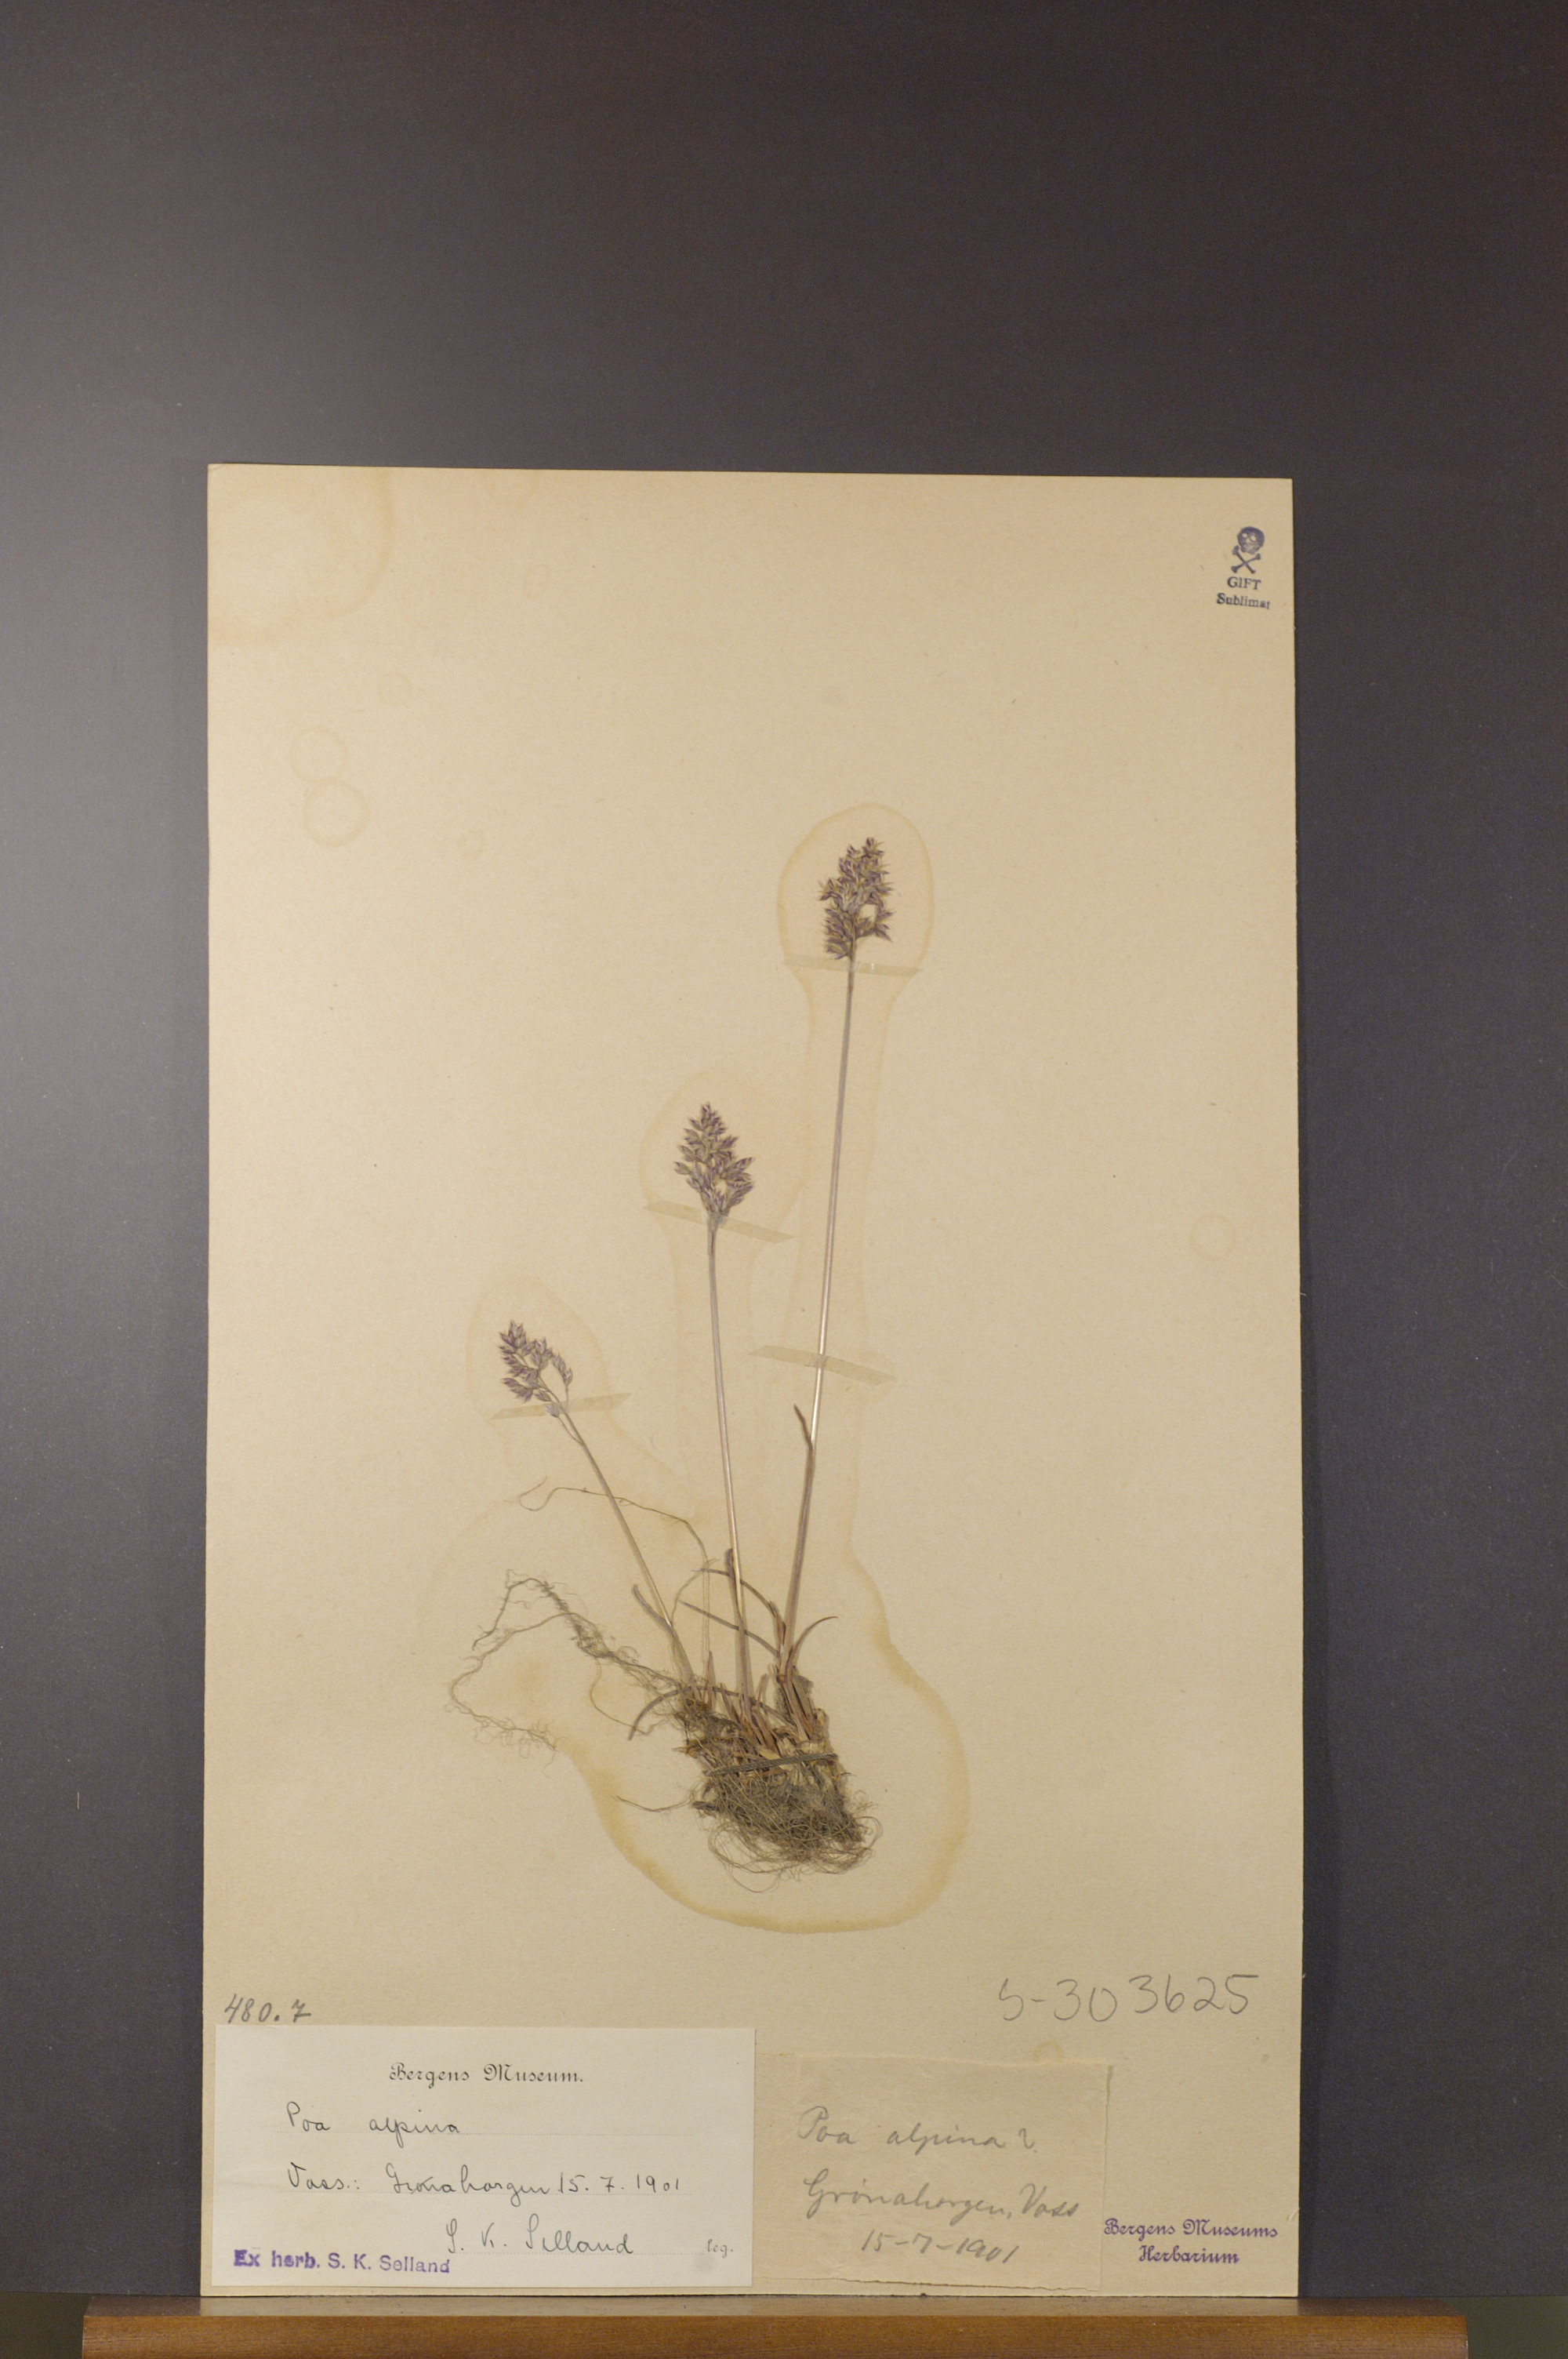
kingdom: Plantae
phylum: Tracheophyta
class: Liliopsida
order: Poales
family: Poaceae
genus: Poa
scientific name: Poa alpina
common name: Alpine bluegrass
